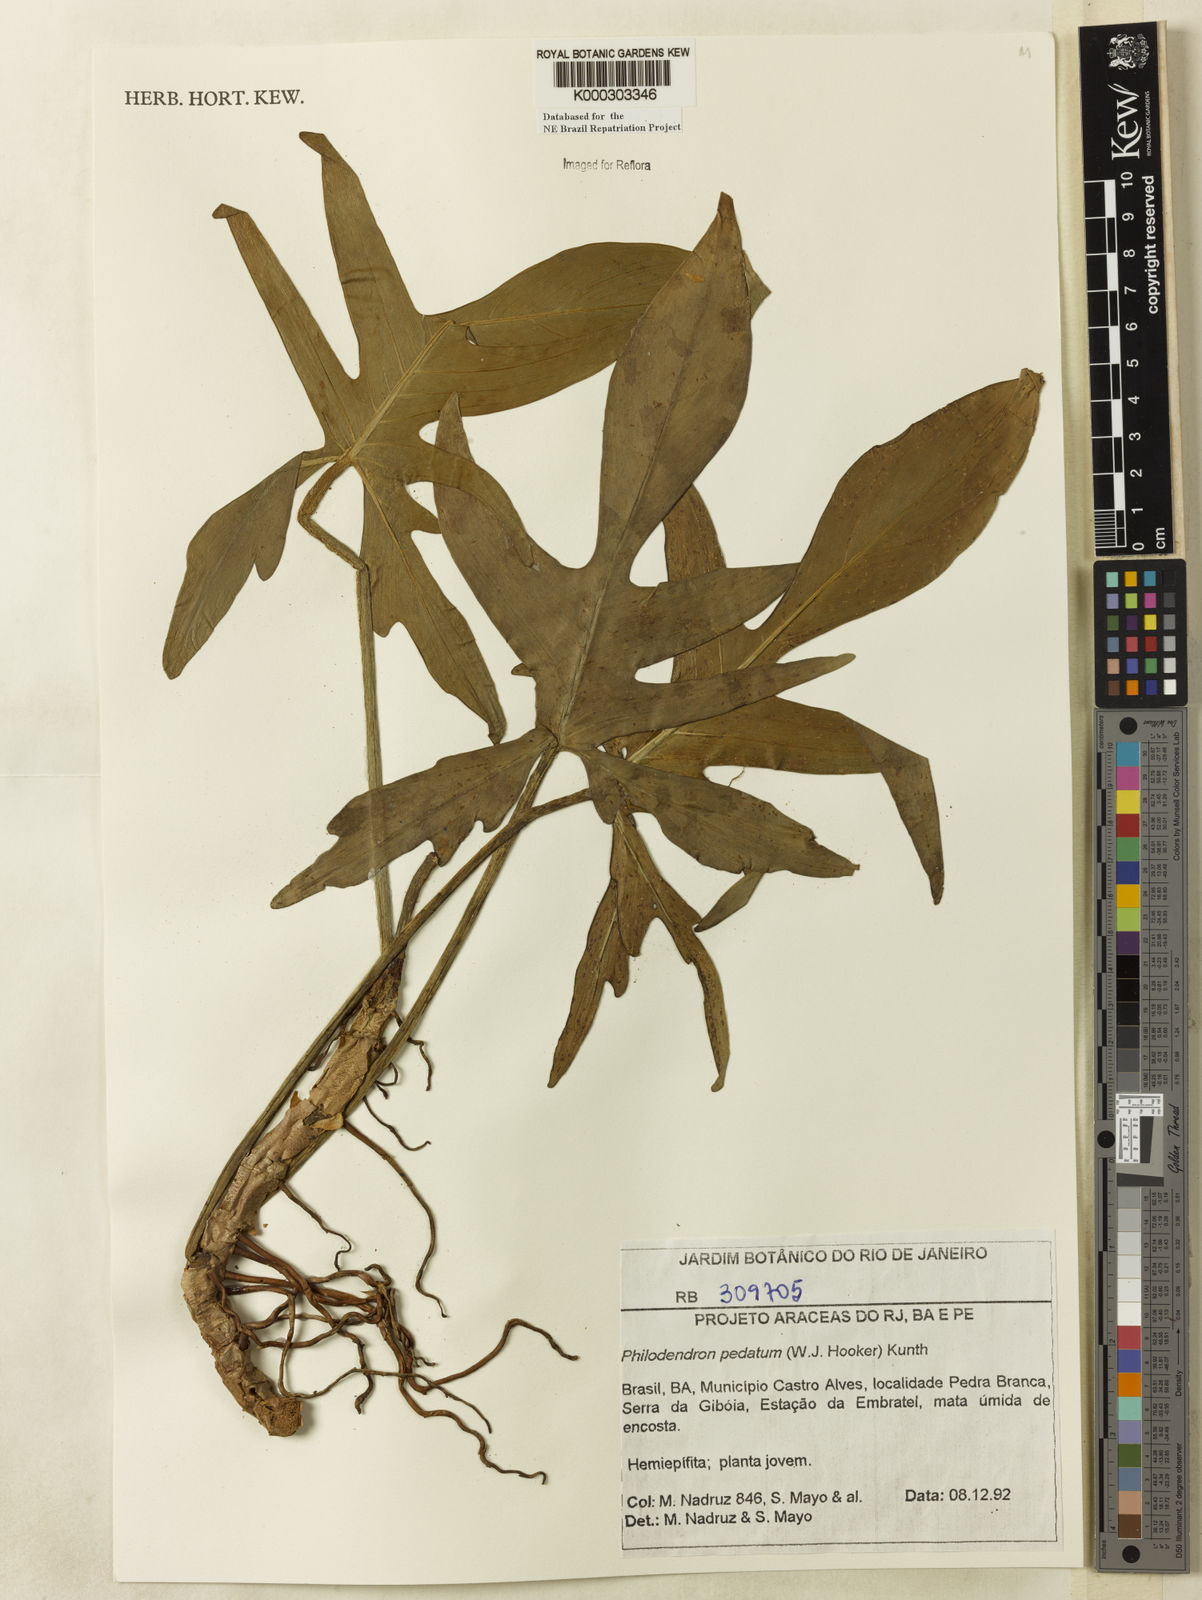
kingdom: Plantae
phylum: Tracheophyta
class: Liliopsida
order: Alismatales
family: Araceae
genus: Philodendron
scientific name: Philodendron pedatum
